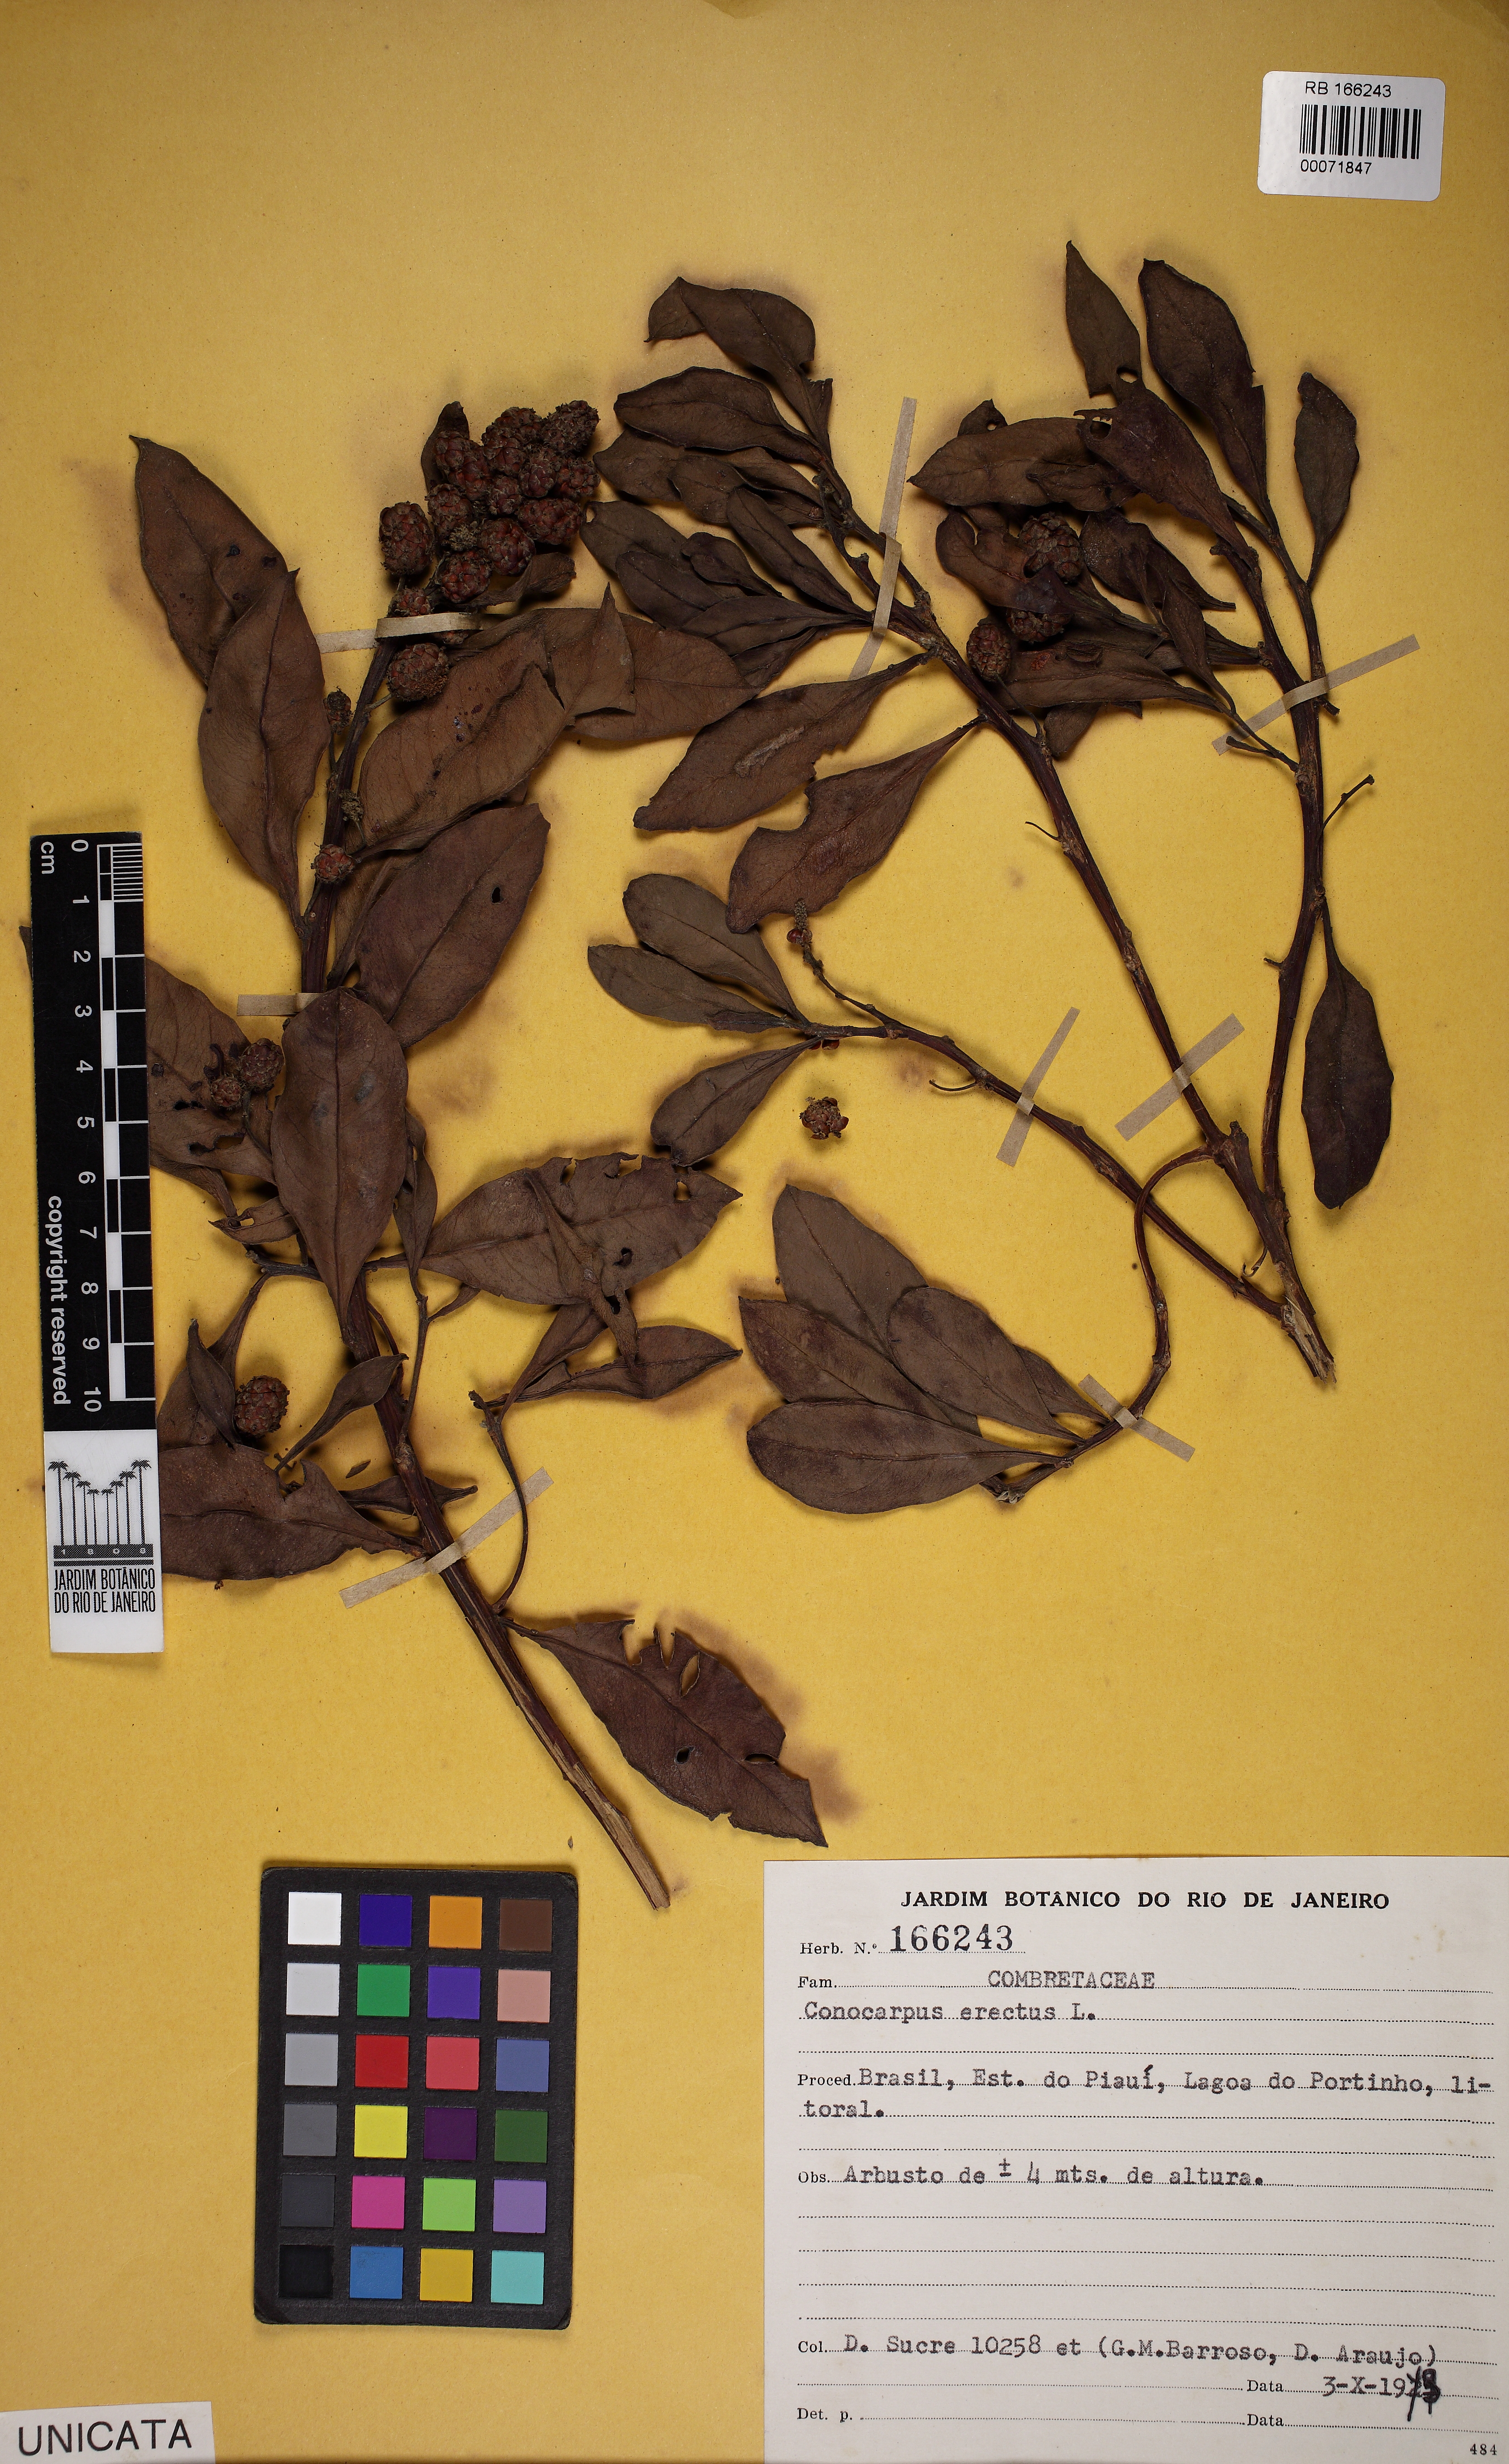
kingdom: Plantae
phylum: Tracheophyta
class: Magnoliopsida
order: Myrtales
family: Combretaceae
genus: Conocarpus
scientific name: Conocarpus erectus
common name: Button mangrove
